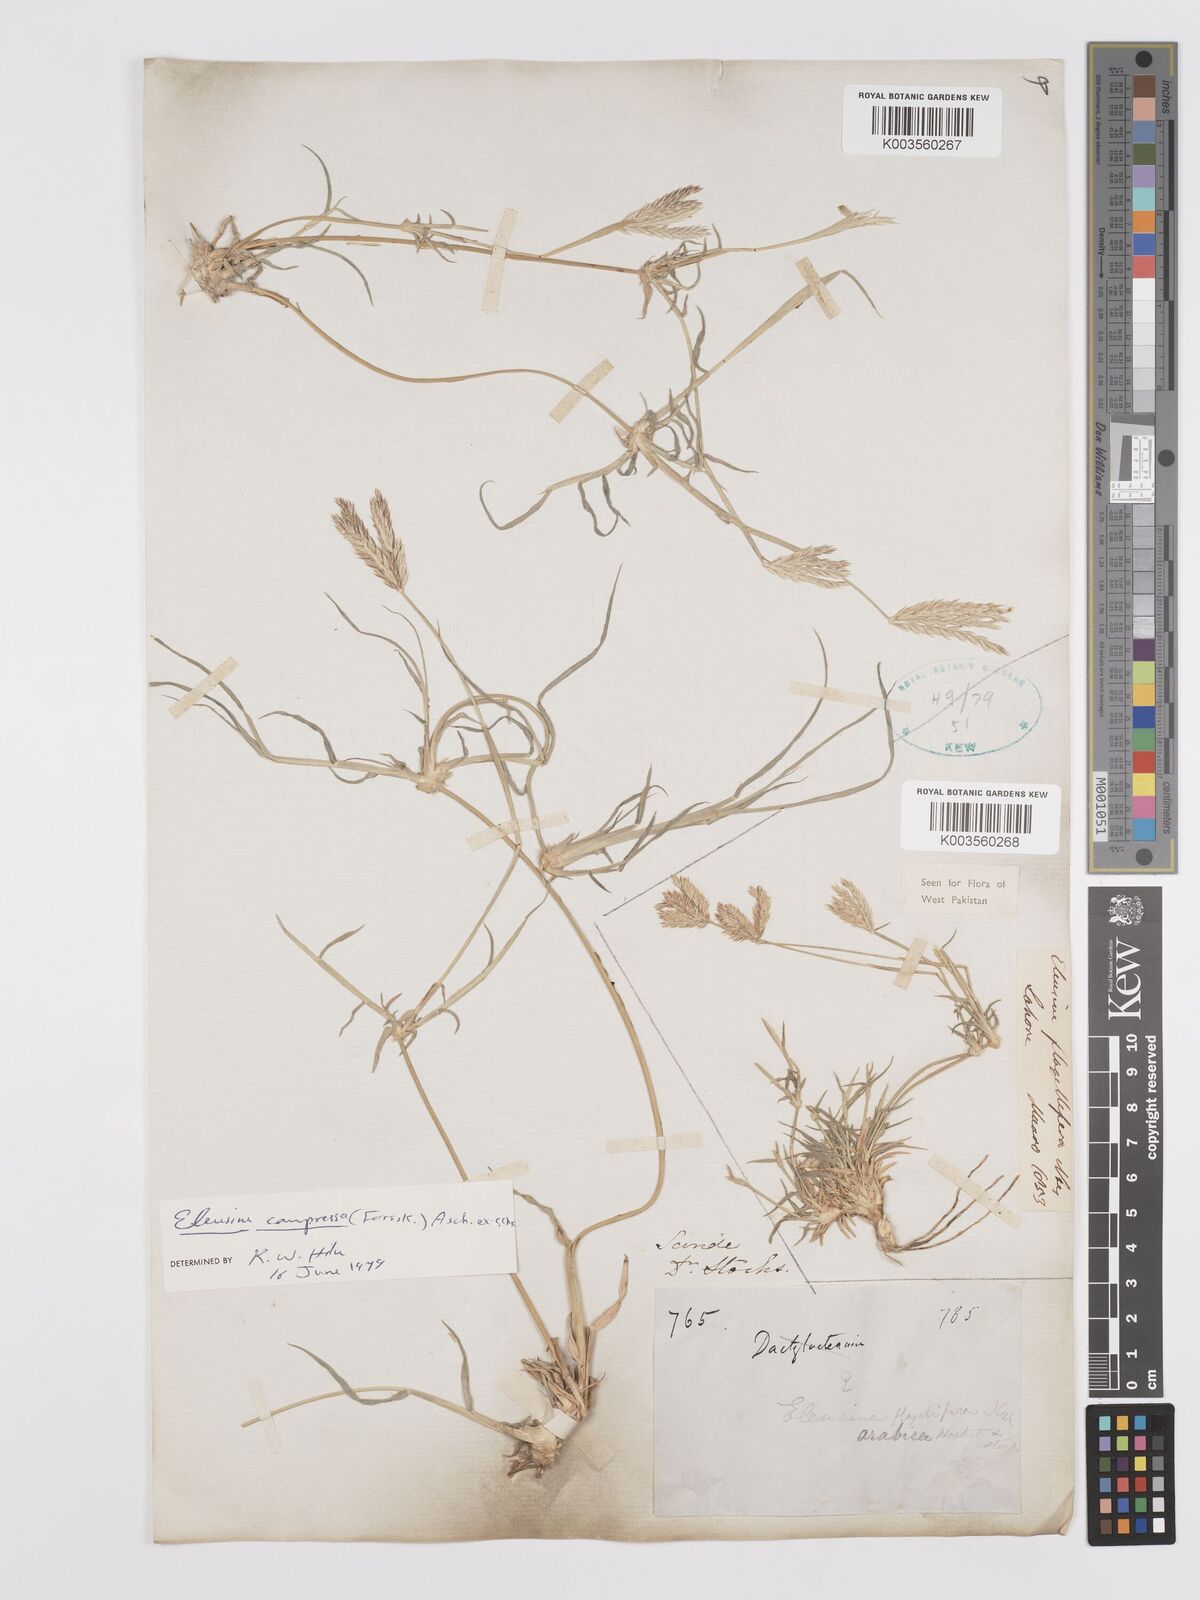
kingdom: Plantae
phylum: Tracheophyta
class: Liliopsida
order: Poales
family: Poaceae
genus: Chloris
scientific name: Chloris flagellifera
